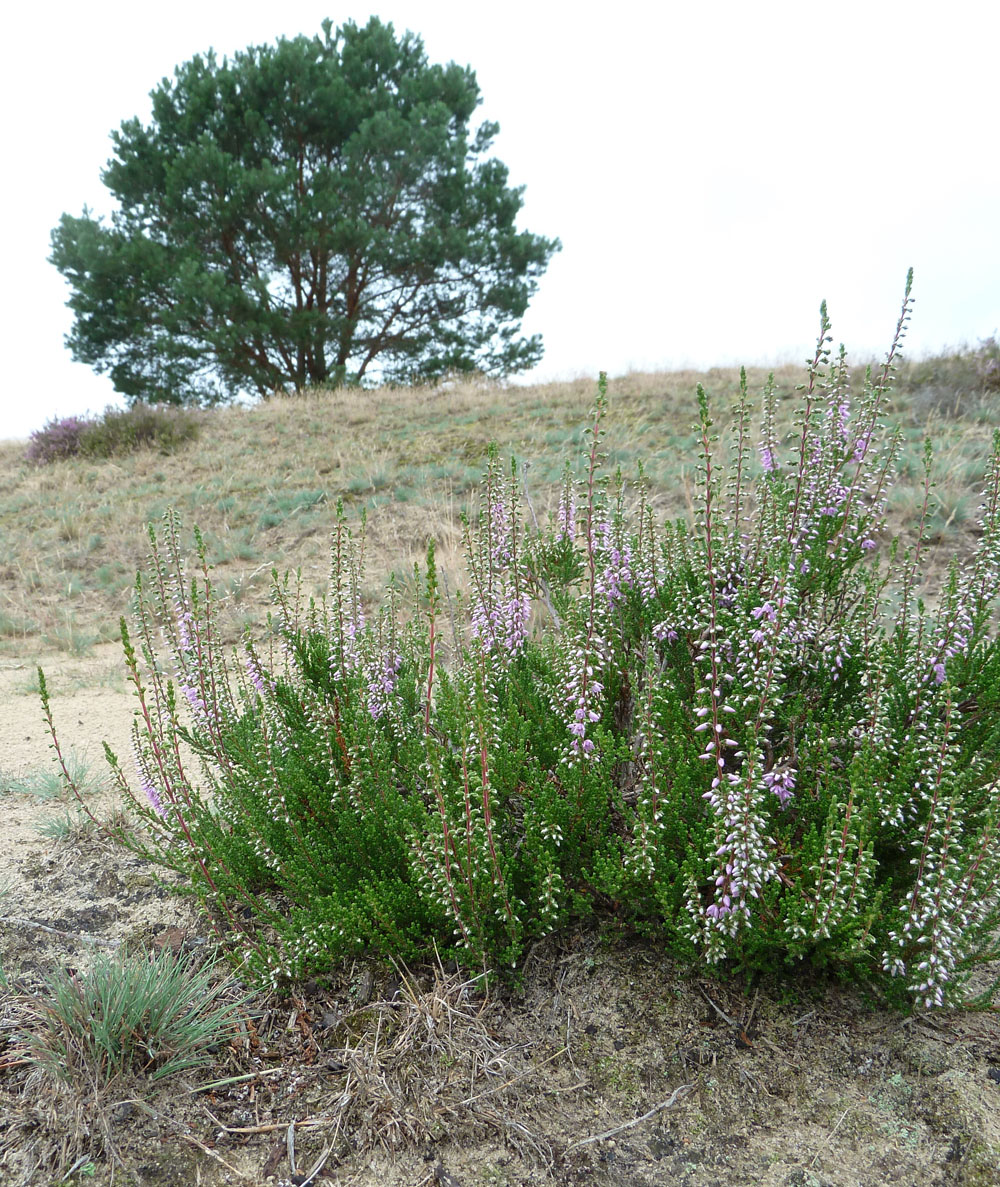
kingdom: Plantae
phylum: Tracheophyta
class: Magnoliopsida
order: Ericales
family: Ericaceae
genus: Calluna
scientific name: Calluna vulgaris
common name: Heather
